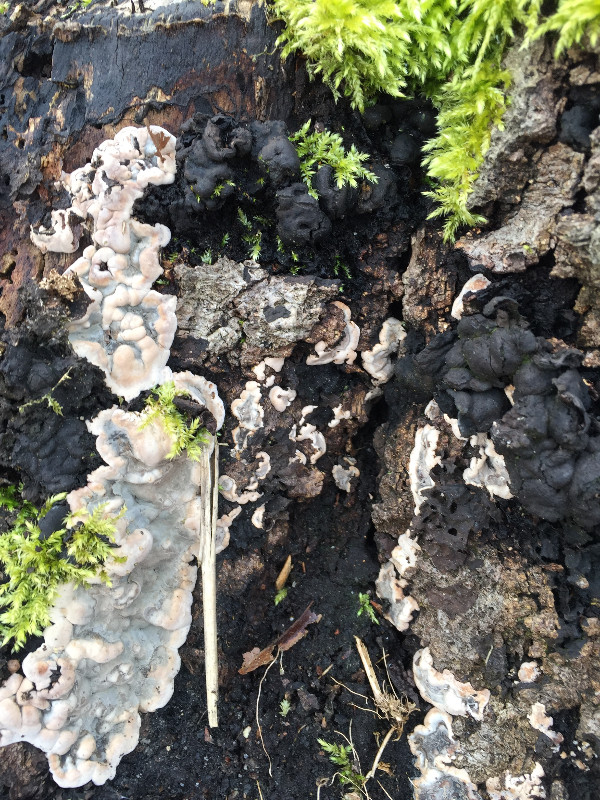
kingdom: Fungi
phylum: Ascomycota
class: Sordariomycetes
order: Xylariales
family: Xylariaceae
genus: Kretzschmaria
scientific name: Kretzschmaria deusta
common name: stor kulsvamp
